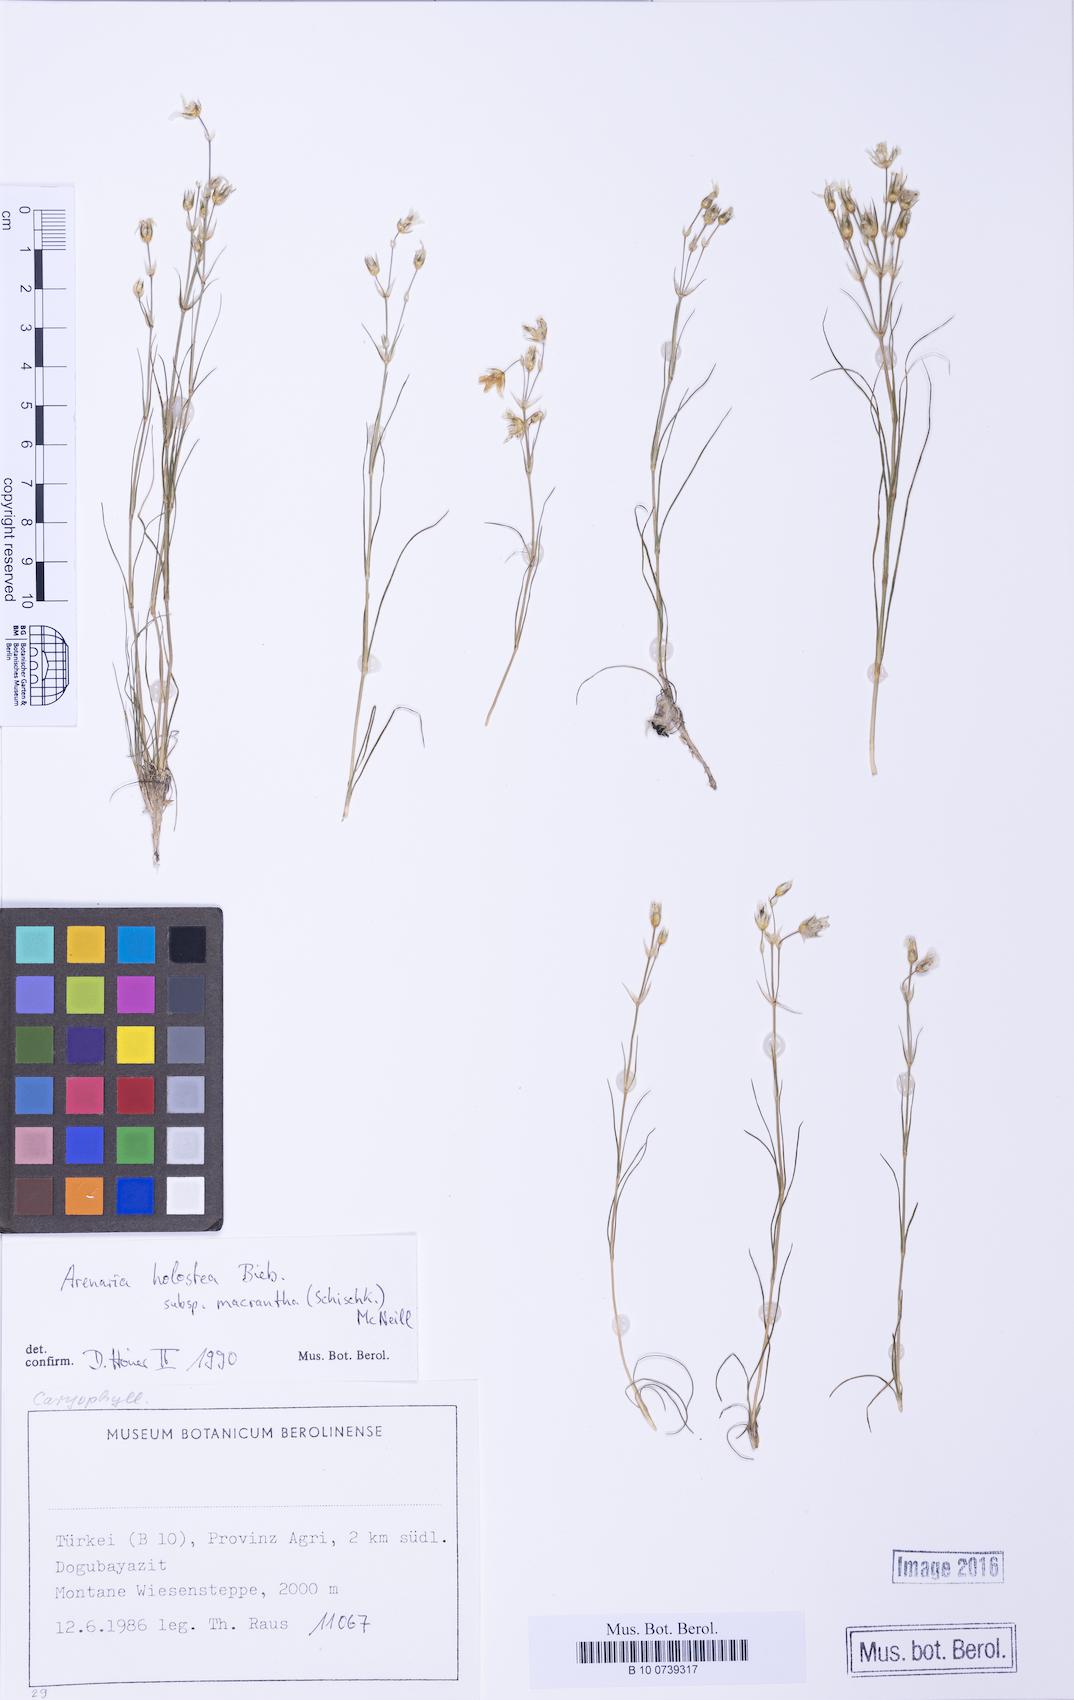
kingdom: Plantae
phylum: Tracheophyta
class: Magnoliopsida
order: Caryophyllales
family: Caryophyllaceae
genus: Eremogone
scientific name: Eremogone macrantha
